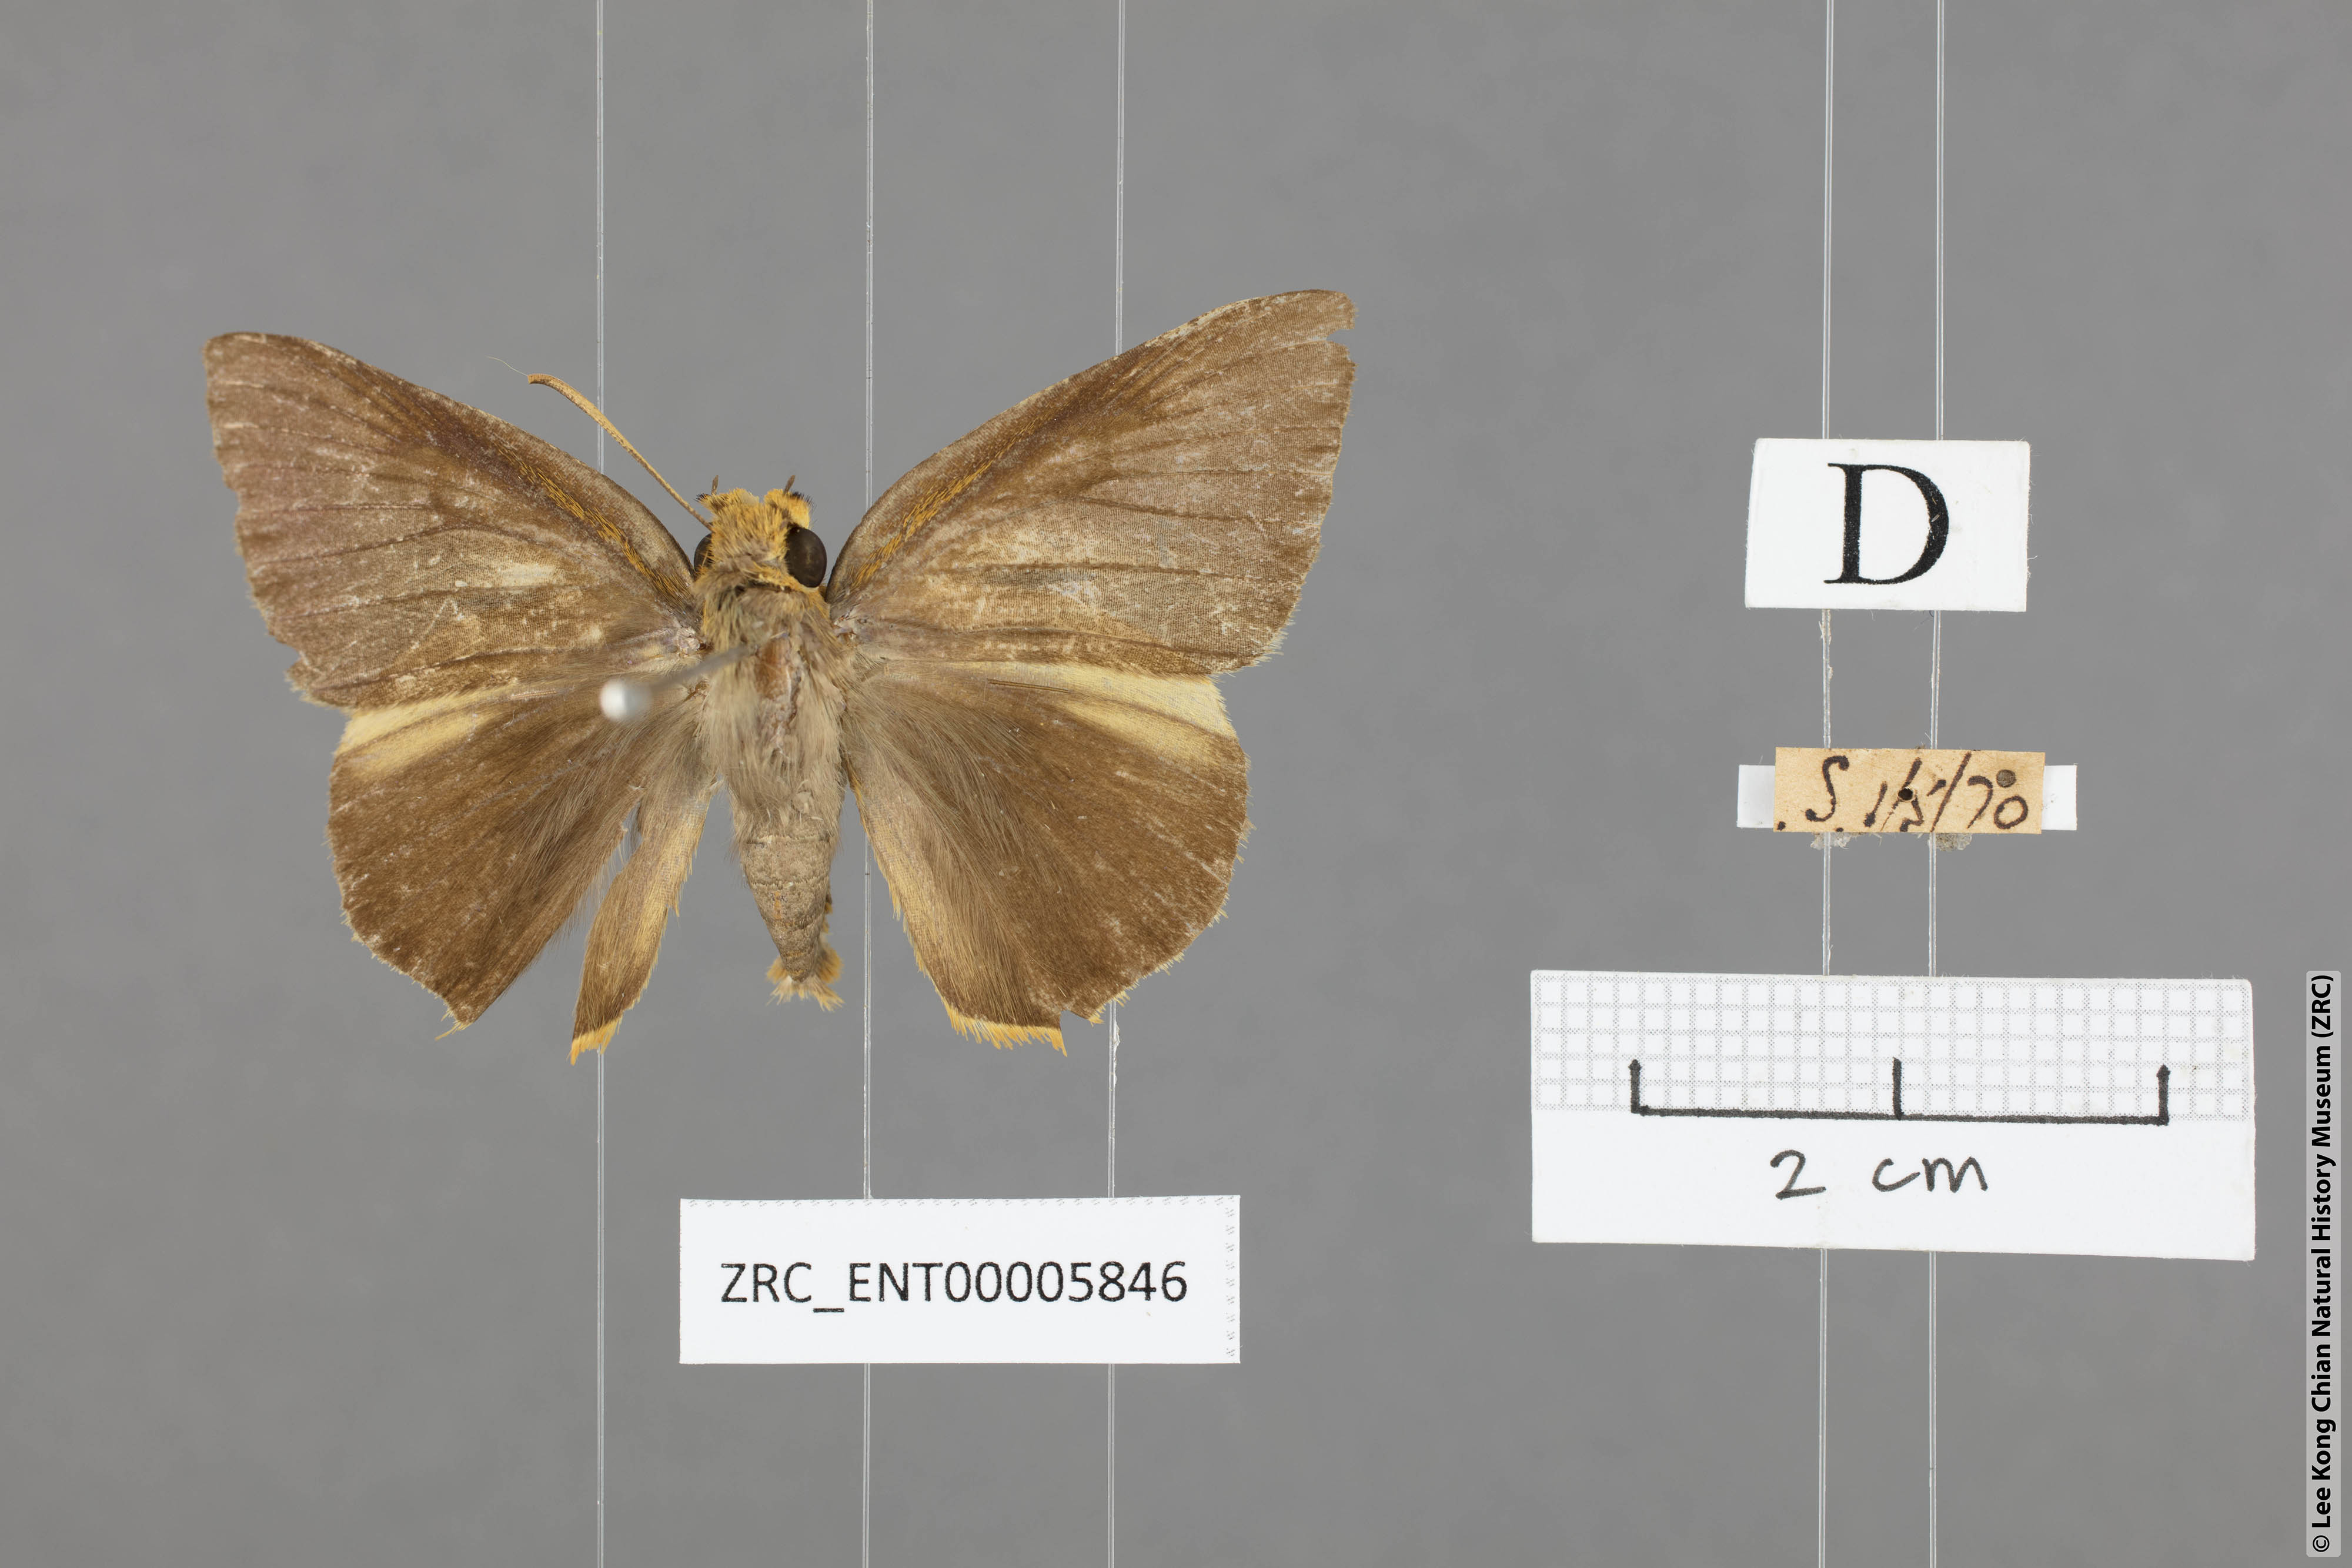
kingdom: Animalia
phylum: Arthropoda
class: Insecta
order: Lepidoptera
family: Hesperiidae
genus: Bibasis
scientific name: Bibasis Burara harisa
